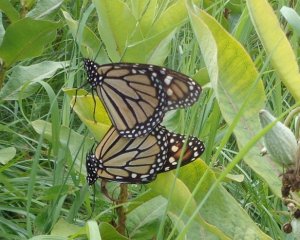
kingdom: Animalia
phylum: Arthropoda
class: Insecta
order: Lepidoptera
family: Nymphalidae
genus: Danaus
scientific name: Danaus plexippus
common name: Monarch
